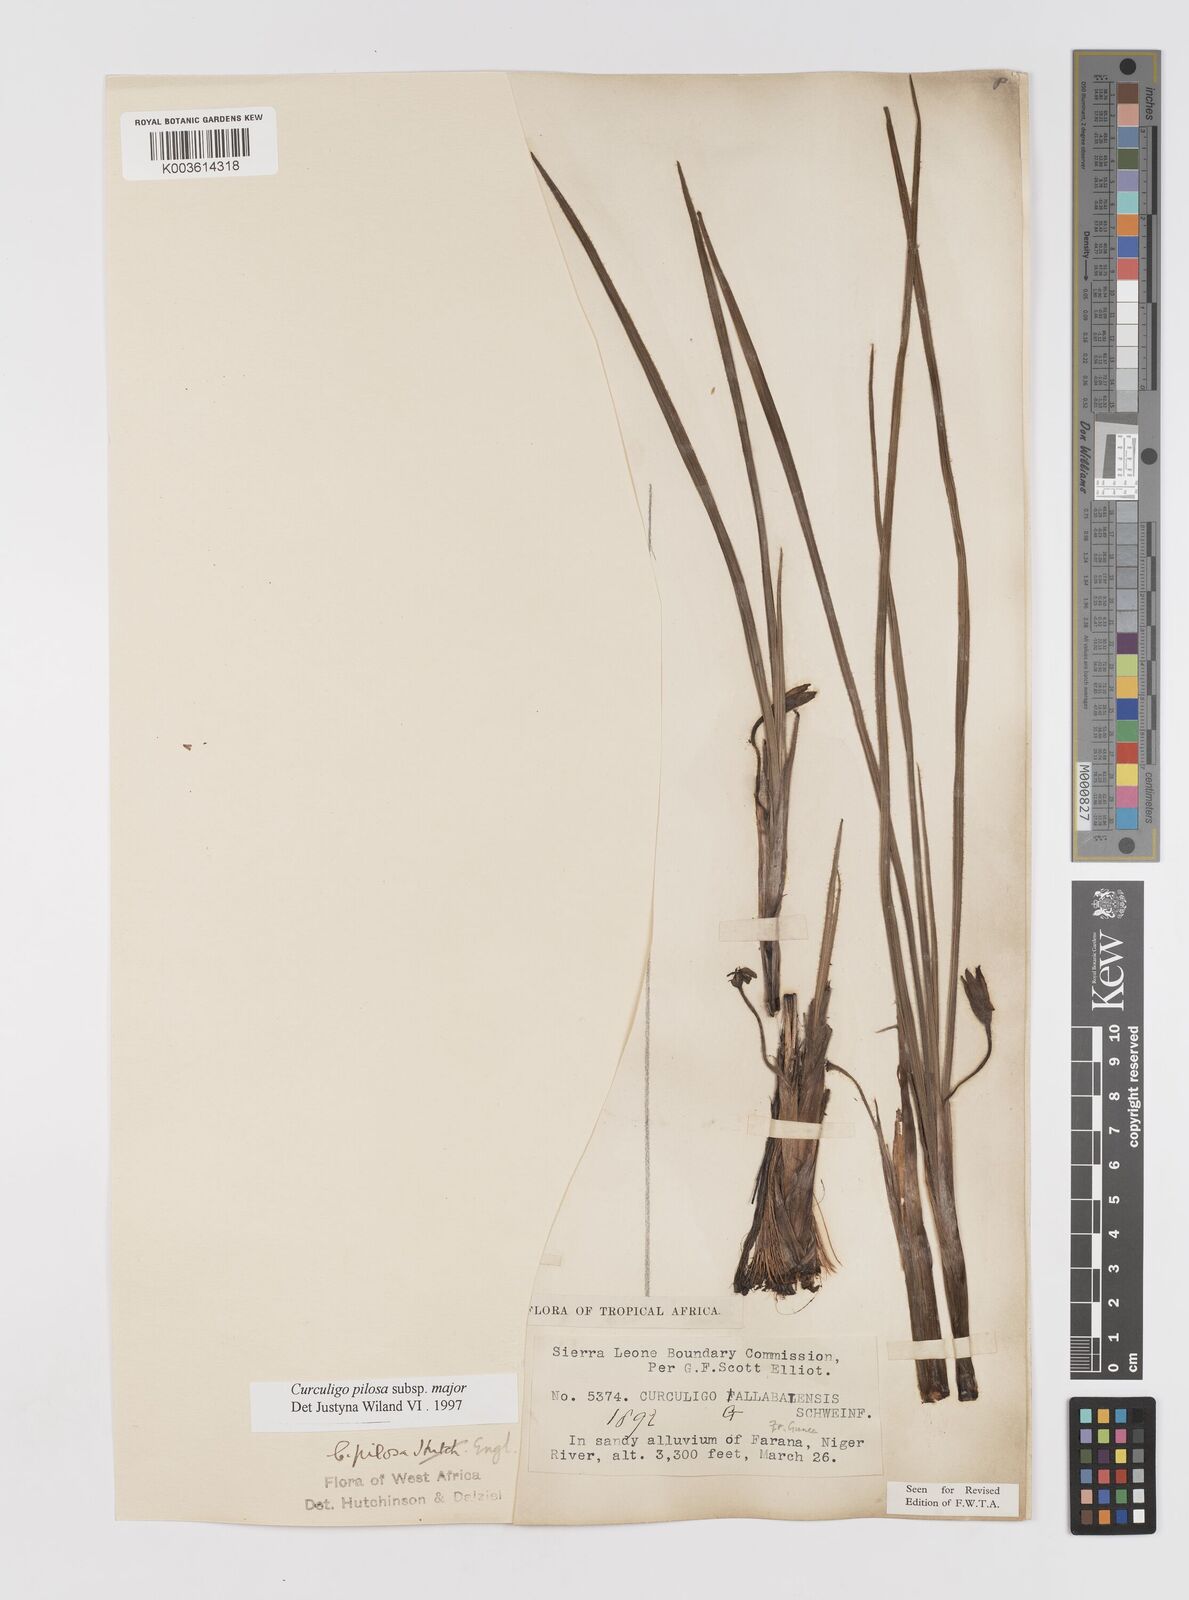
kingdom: Plantae
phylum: Tracheophyta
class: Liliopsida
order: Asparagales
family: Hypoxidaceae
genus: Curculigo
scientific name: Curculigo pilosa
